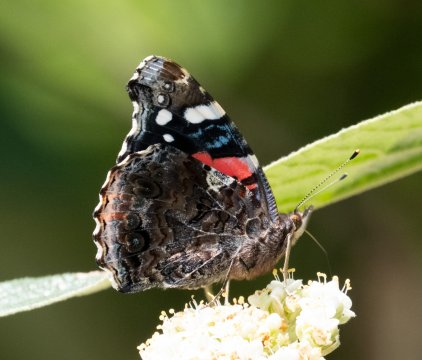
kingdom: Animalia
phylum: Arthropoda
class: Insecta
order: Lepidoptera
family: Nymphalidae
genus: Vanessa
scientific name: Vanessa atalanta
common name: Red Admiral
